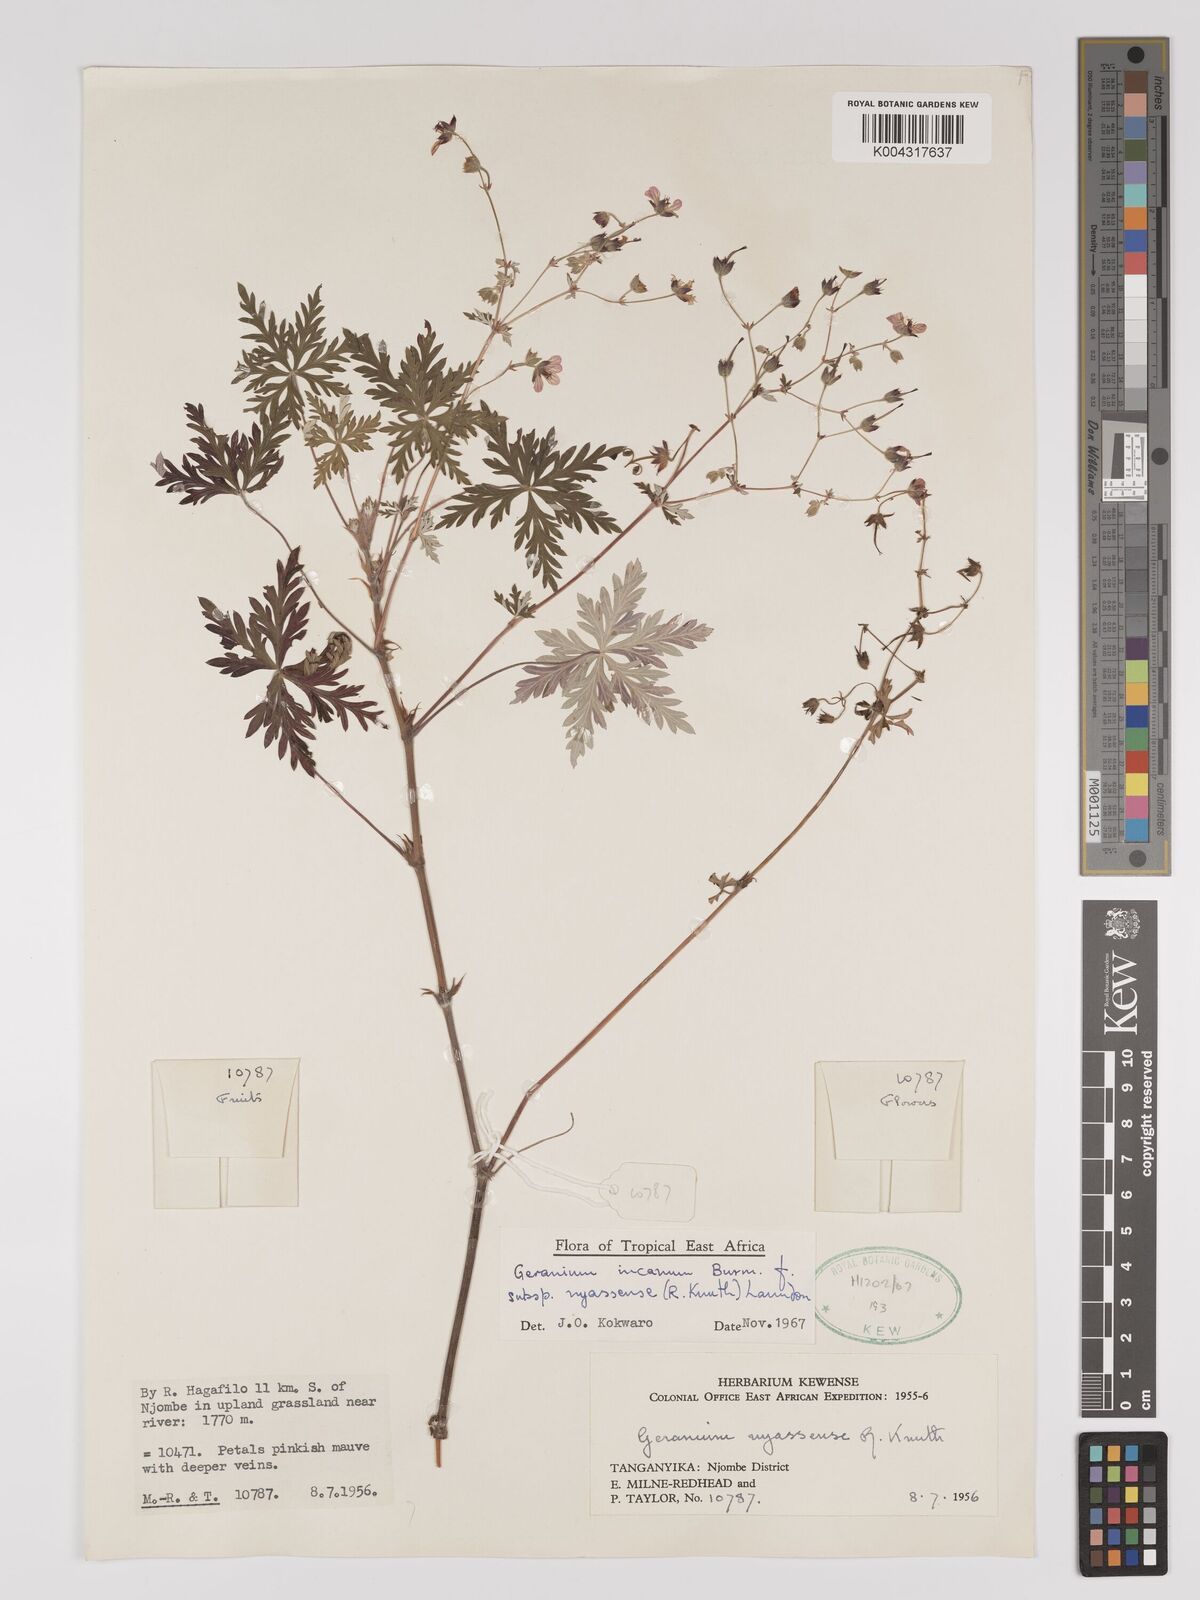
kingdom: Plantae
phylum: Tracheophyta
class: Magnoliopsida
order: Geraniales
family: Geraniaceae
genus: Geranium
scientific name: Geranium incanum
